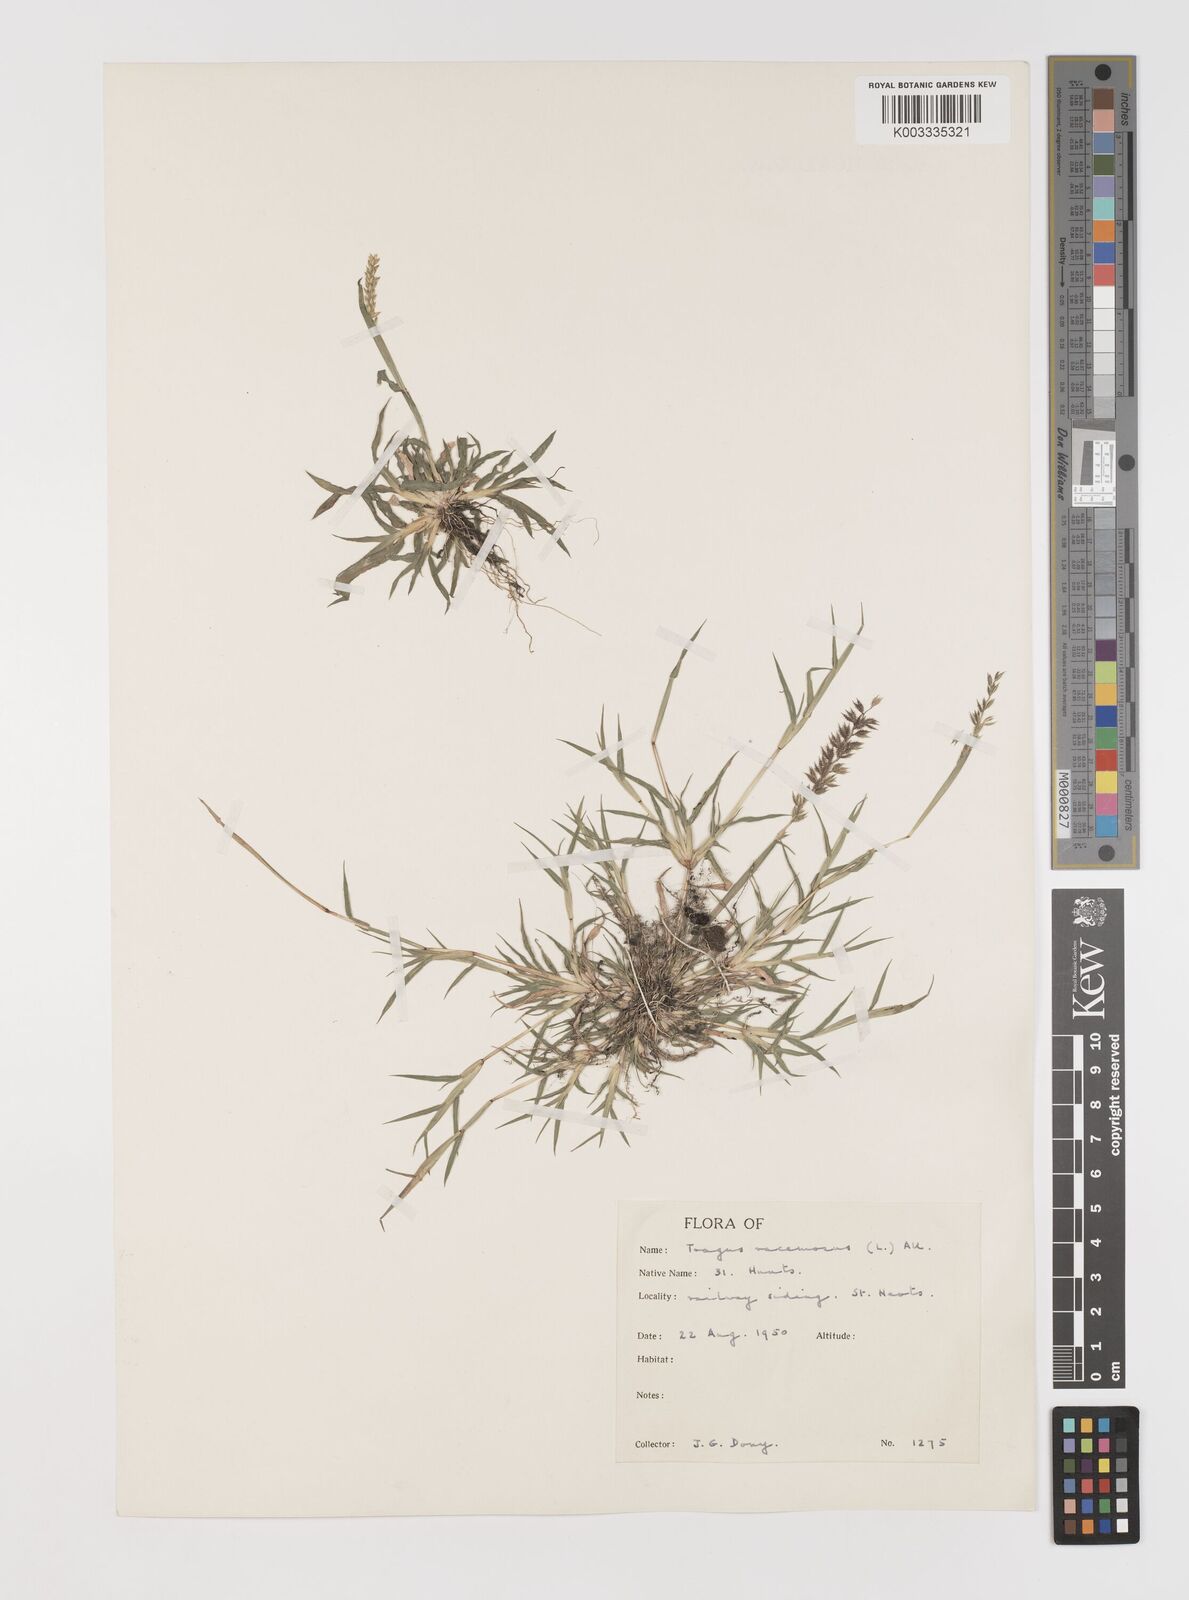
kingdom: Plantae
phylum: Tracheophyta
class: Liliopsida
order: Poales
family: Poaceae
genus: Tragus
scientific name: Tragus racemosus
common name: European bur-grass
